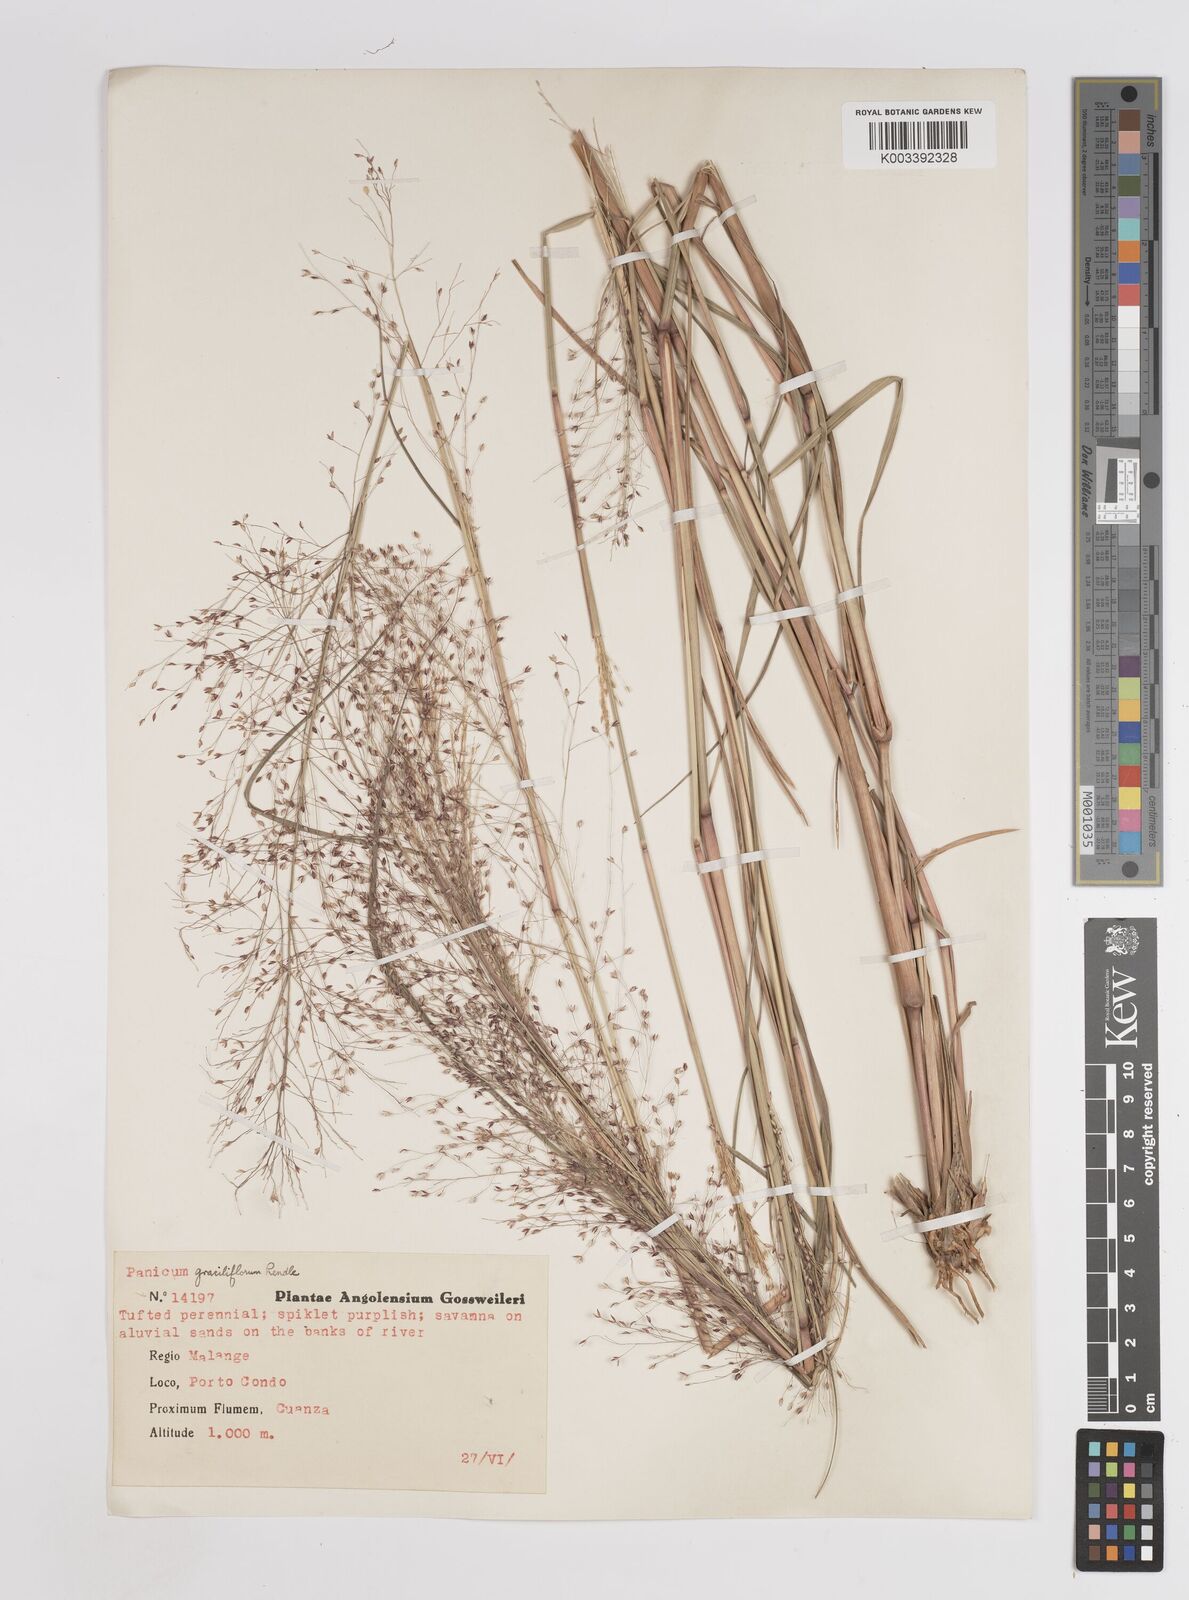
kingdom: Plantae
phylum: Tracheophyta
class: Liliopsida
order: Poales
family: Poaceae
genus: Panicum
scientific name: Panicum fluviicola
